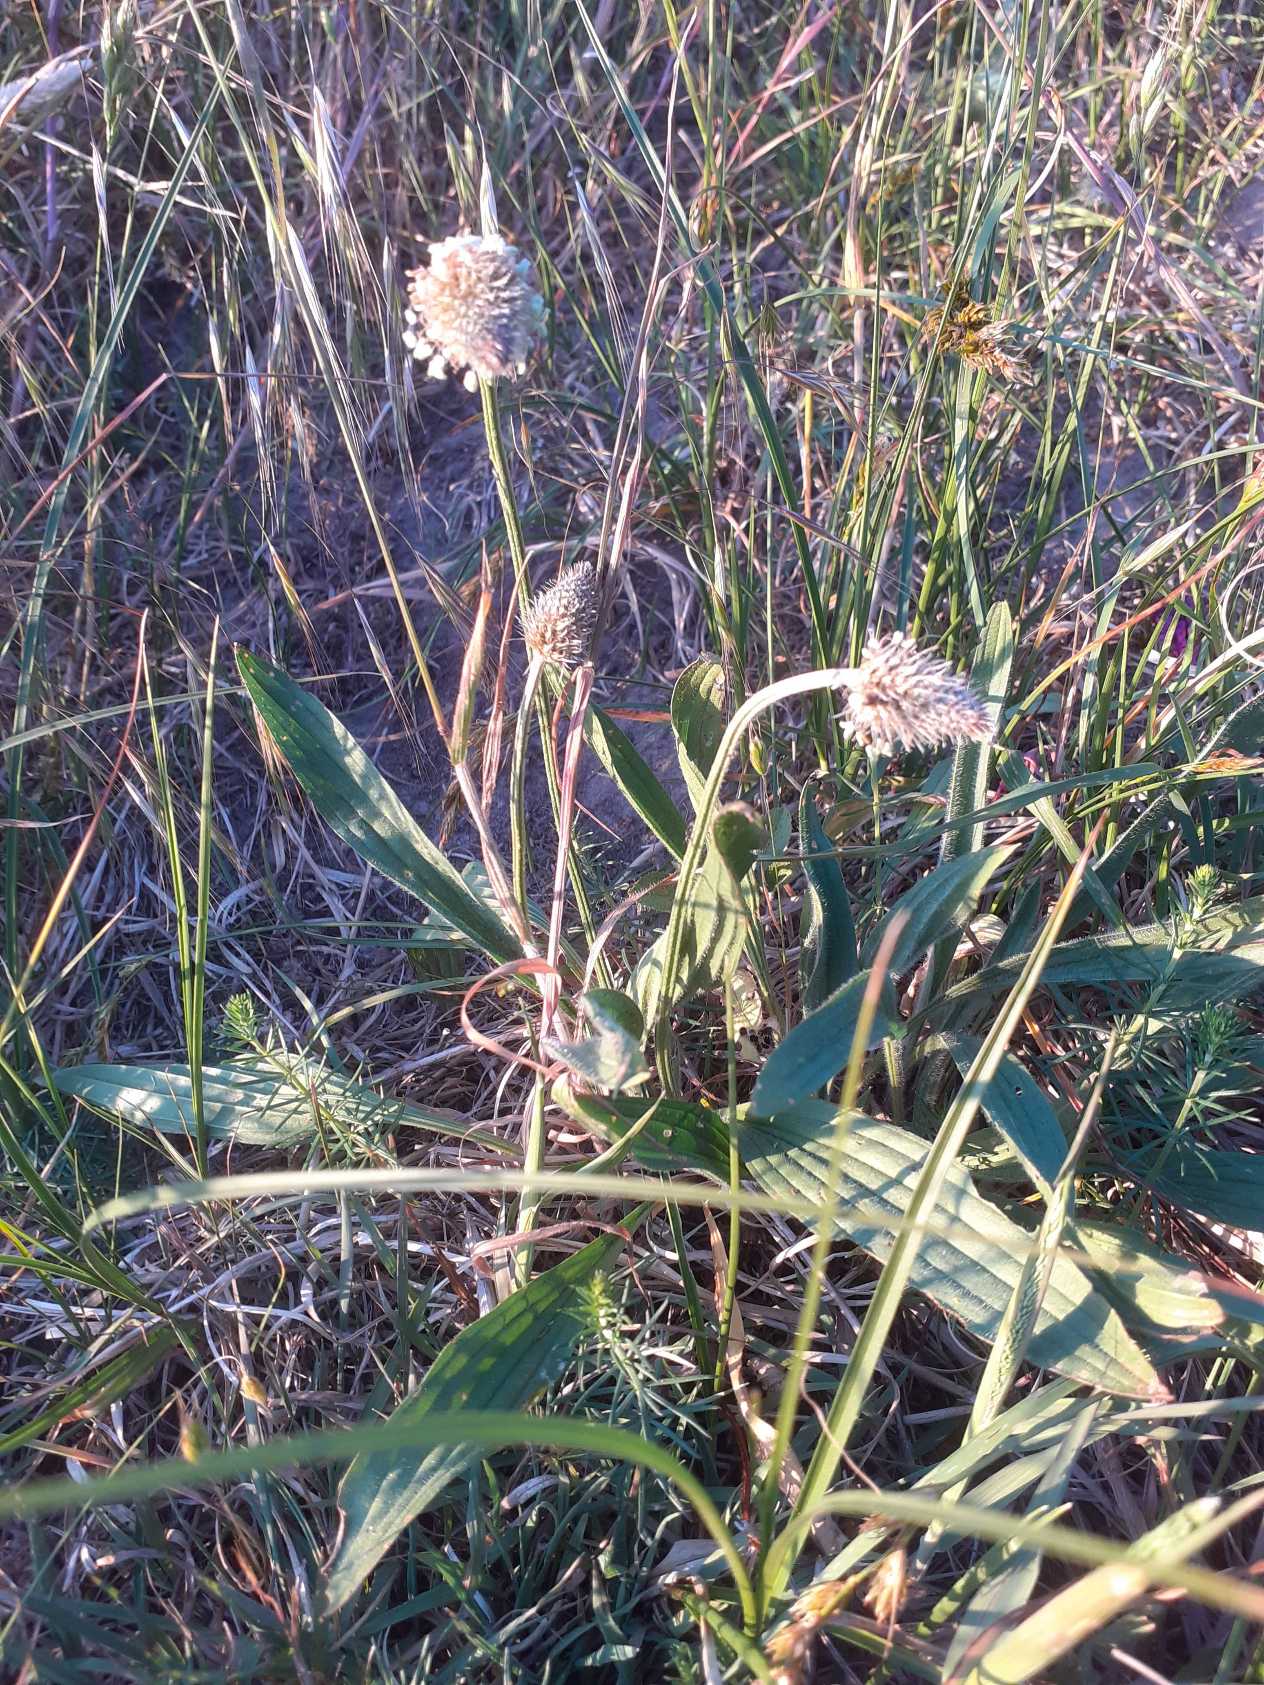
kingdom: Plantae
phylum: Tracheophyta
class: Magnoliopsida
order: Lamiales
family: Plantaginaceae
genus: Plantago
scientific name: Plantago lanceolata
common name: Lancet-vejbred
